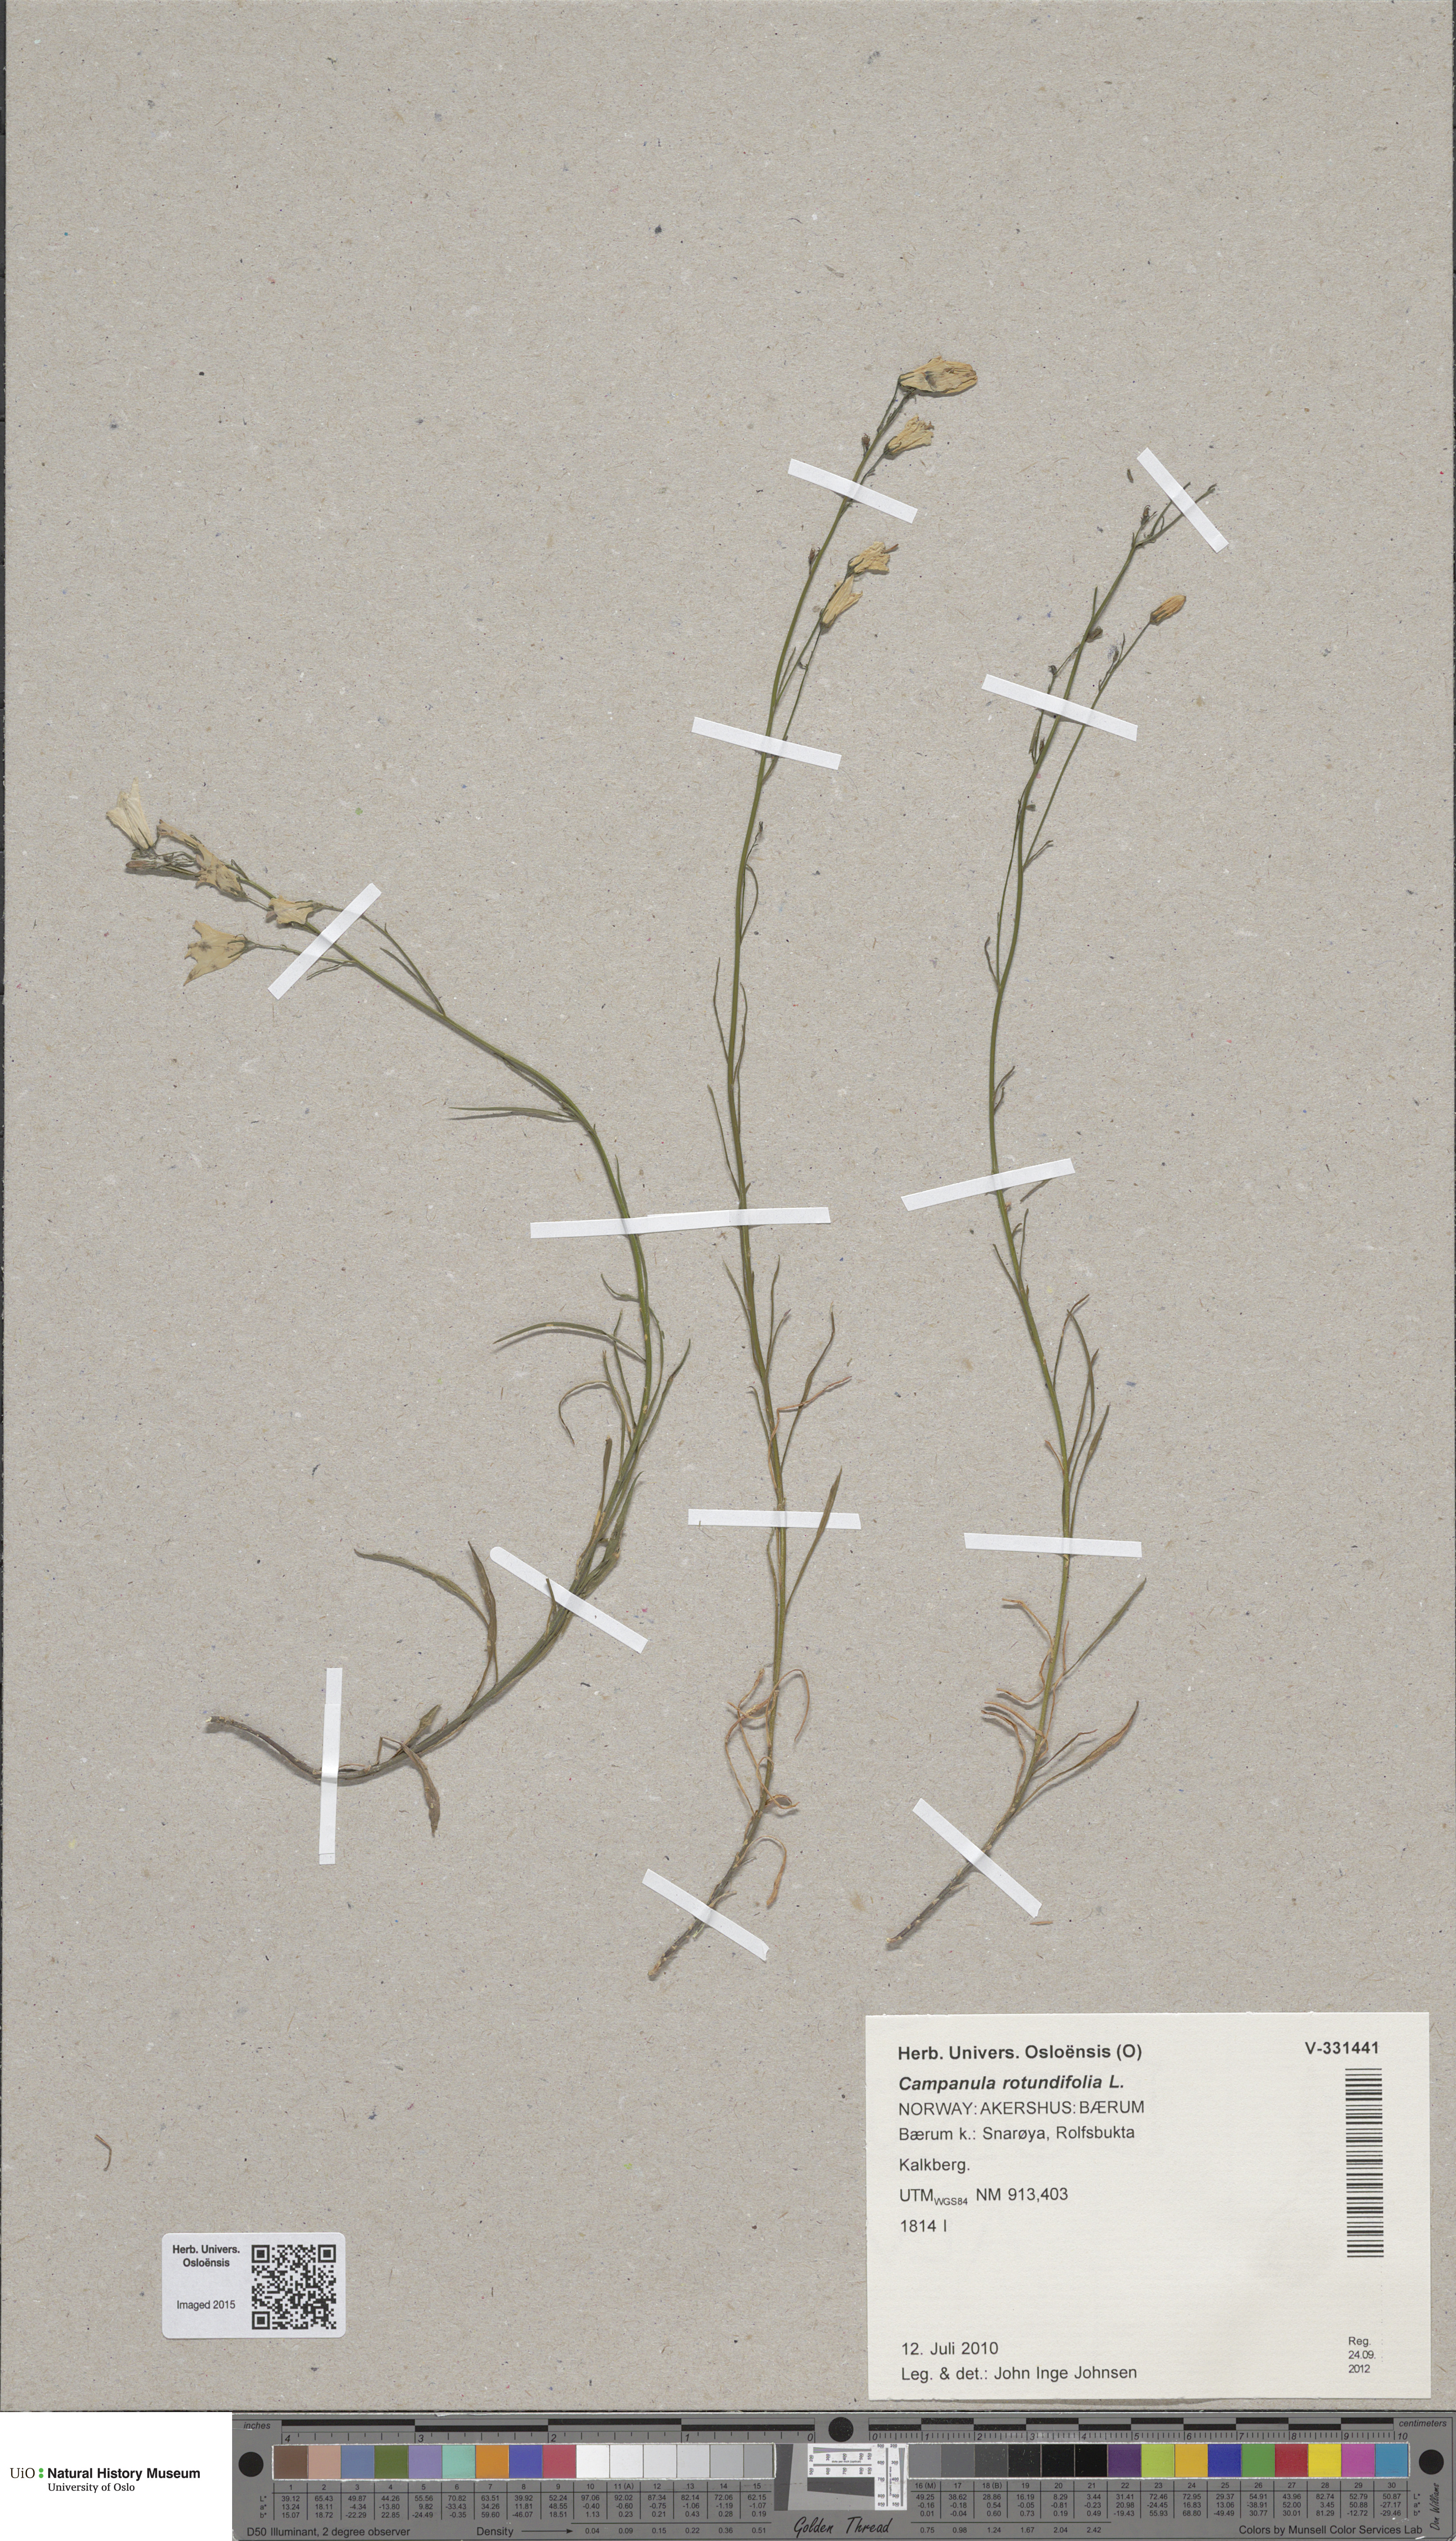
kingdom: Plantae
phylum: Tracheophyta
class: Magnoliopsida
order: Asterales
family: Campanulaceae
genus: Campanula
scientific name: Campanula rotundifolia
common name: Harebell
